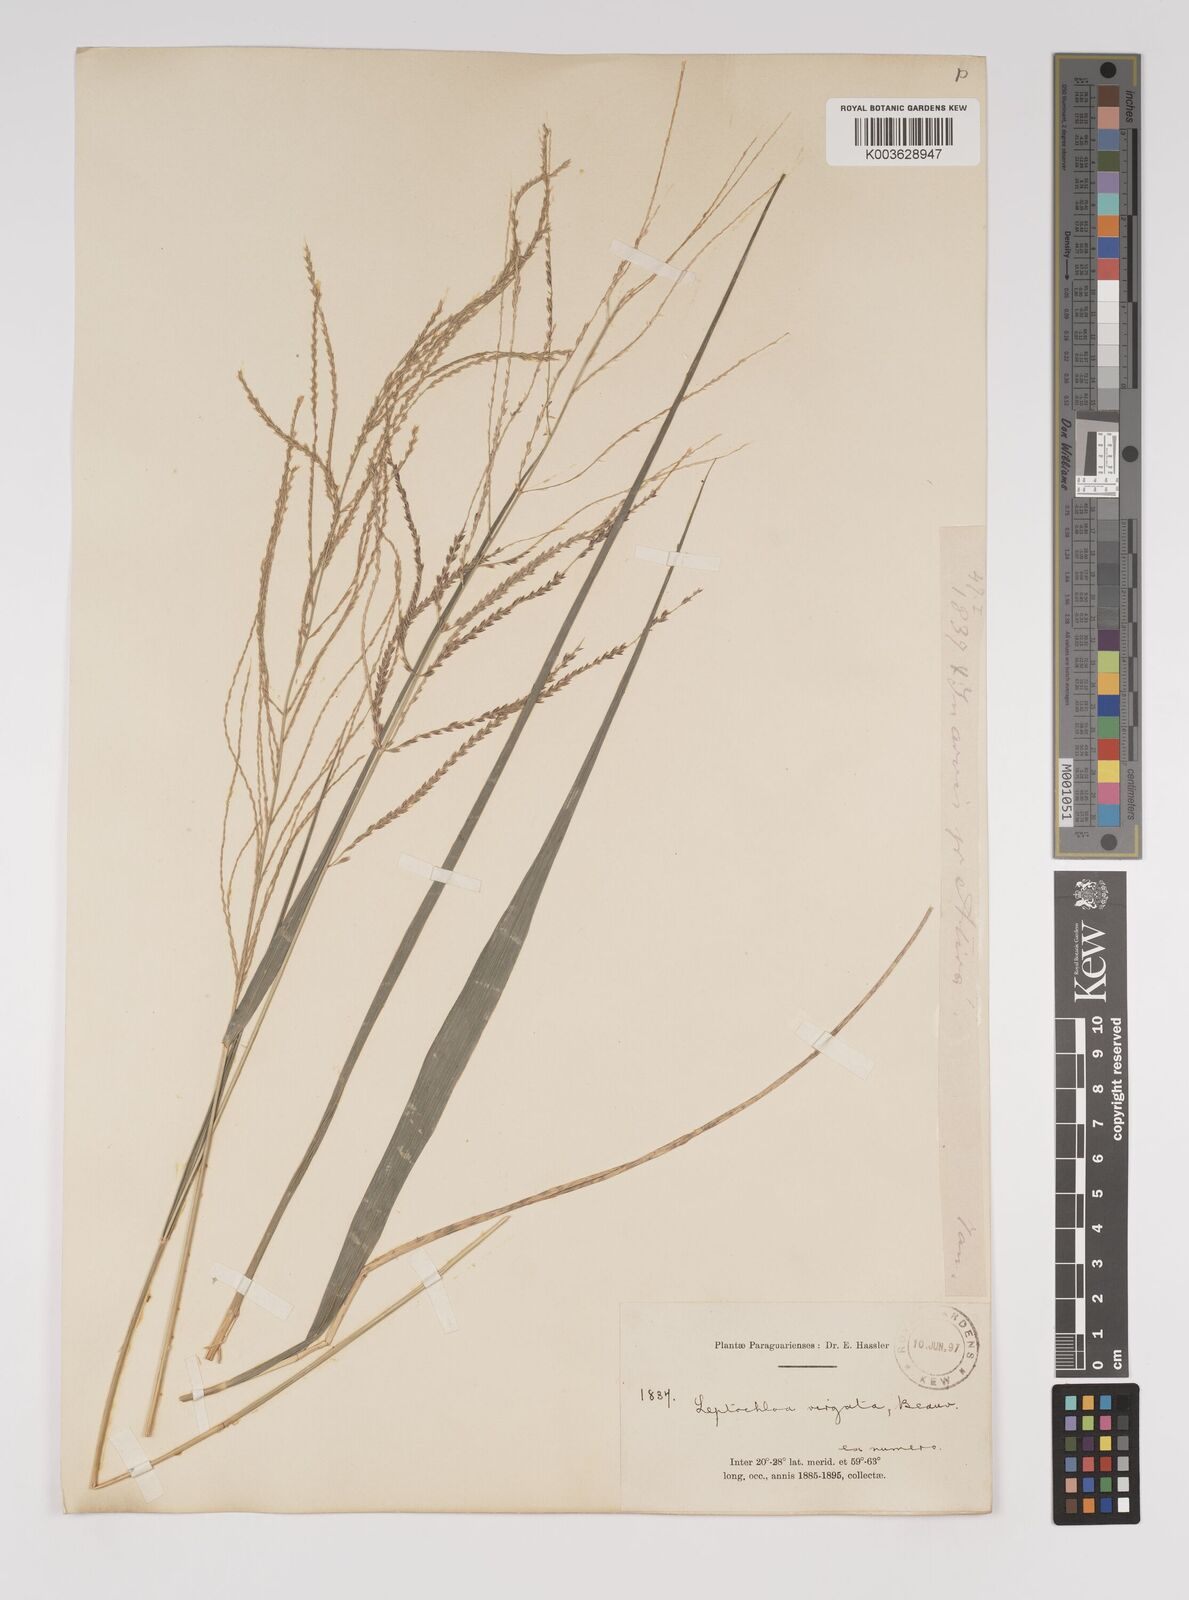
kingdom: Plantae
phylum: Tracheophyta
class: Liliopsida
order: Poales
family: Poaceae
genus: Leptochloa
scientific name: Leptochloa virgata
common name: Tropical sprangletop
